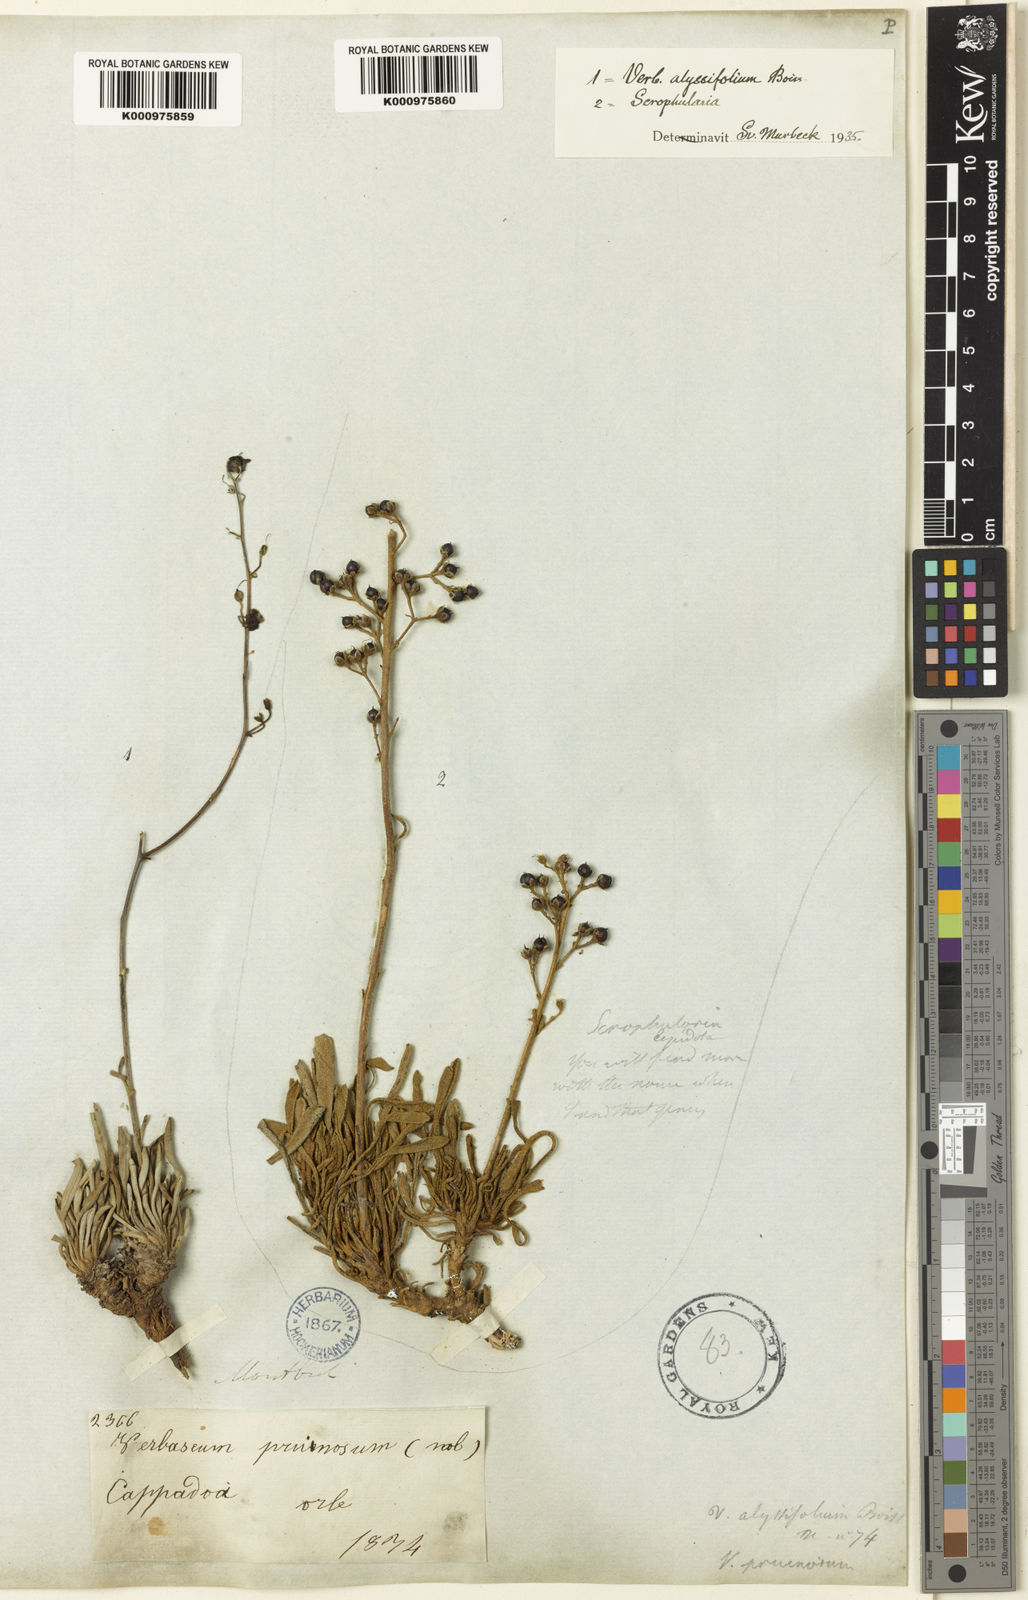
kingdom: Plantae
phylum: Tracheophyta
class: Magnoliopsida
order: Lamiales
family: Scrophulariaceae
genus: Verbascum
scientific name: Verbascum alyssifolium
